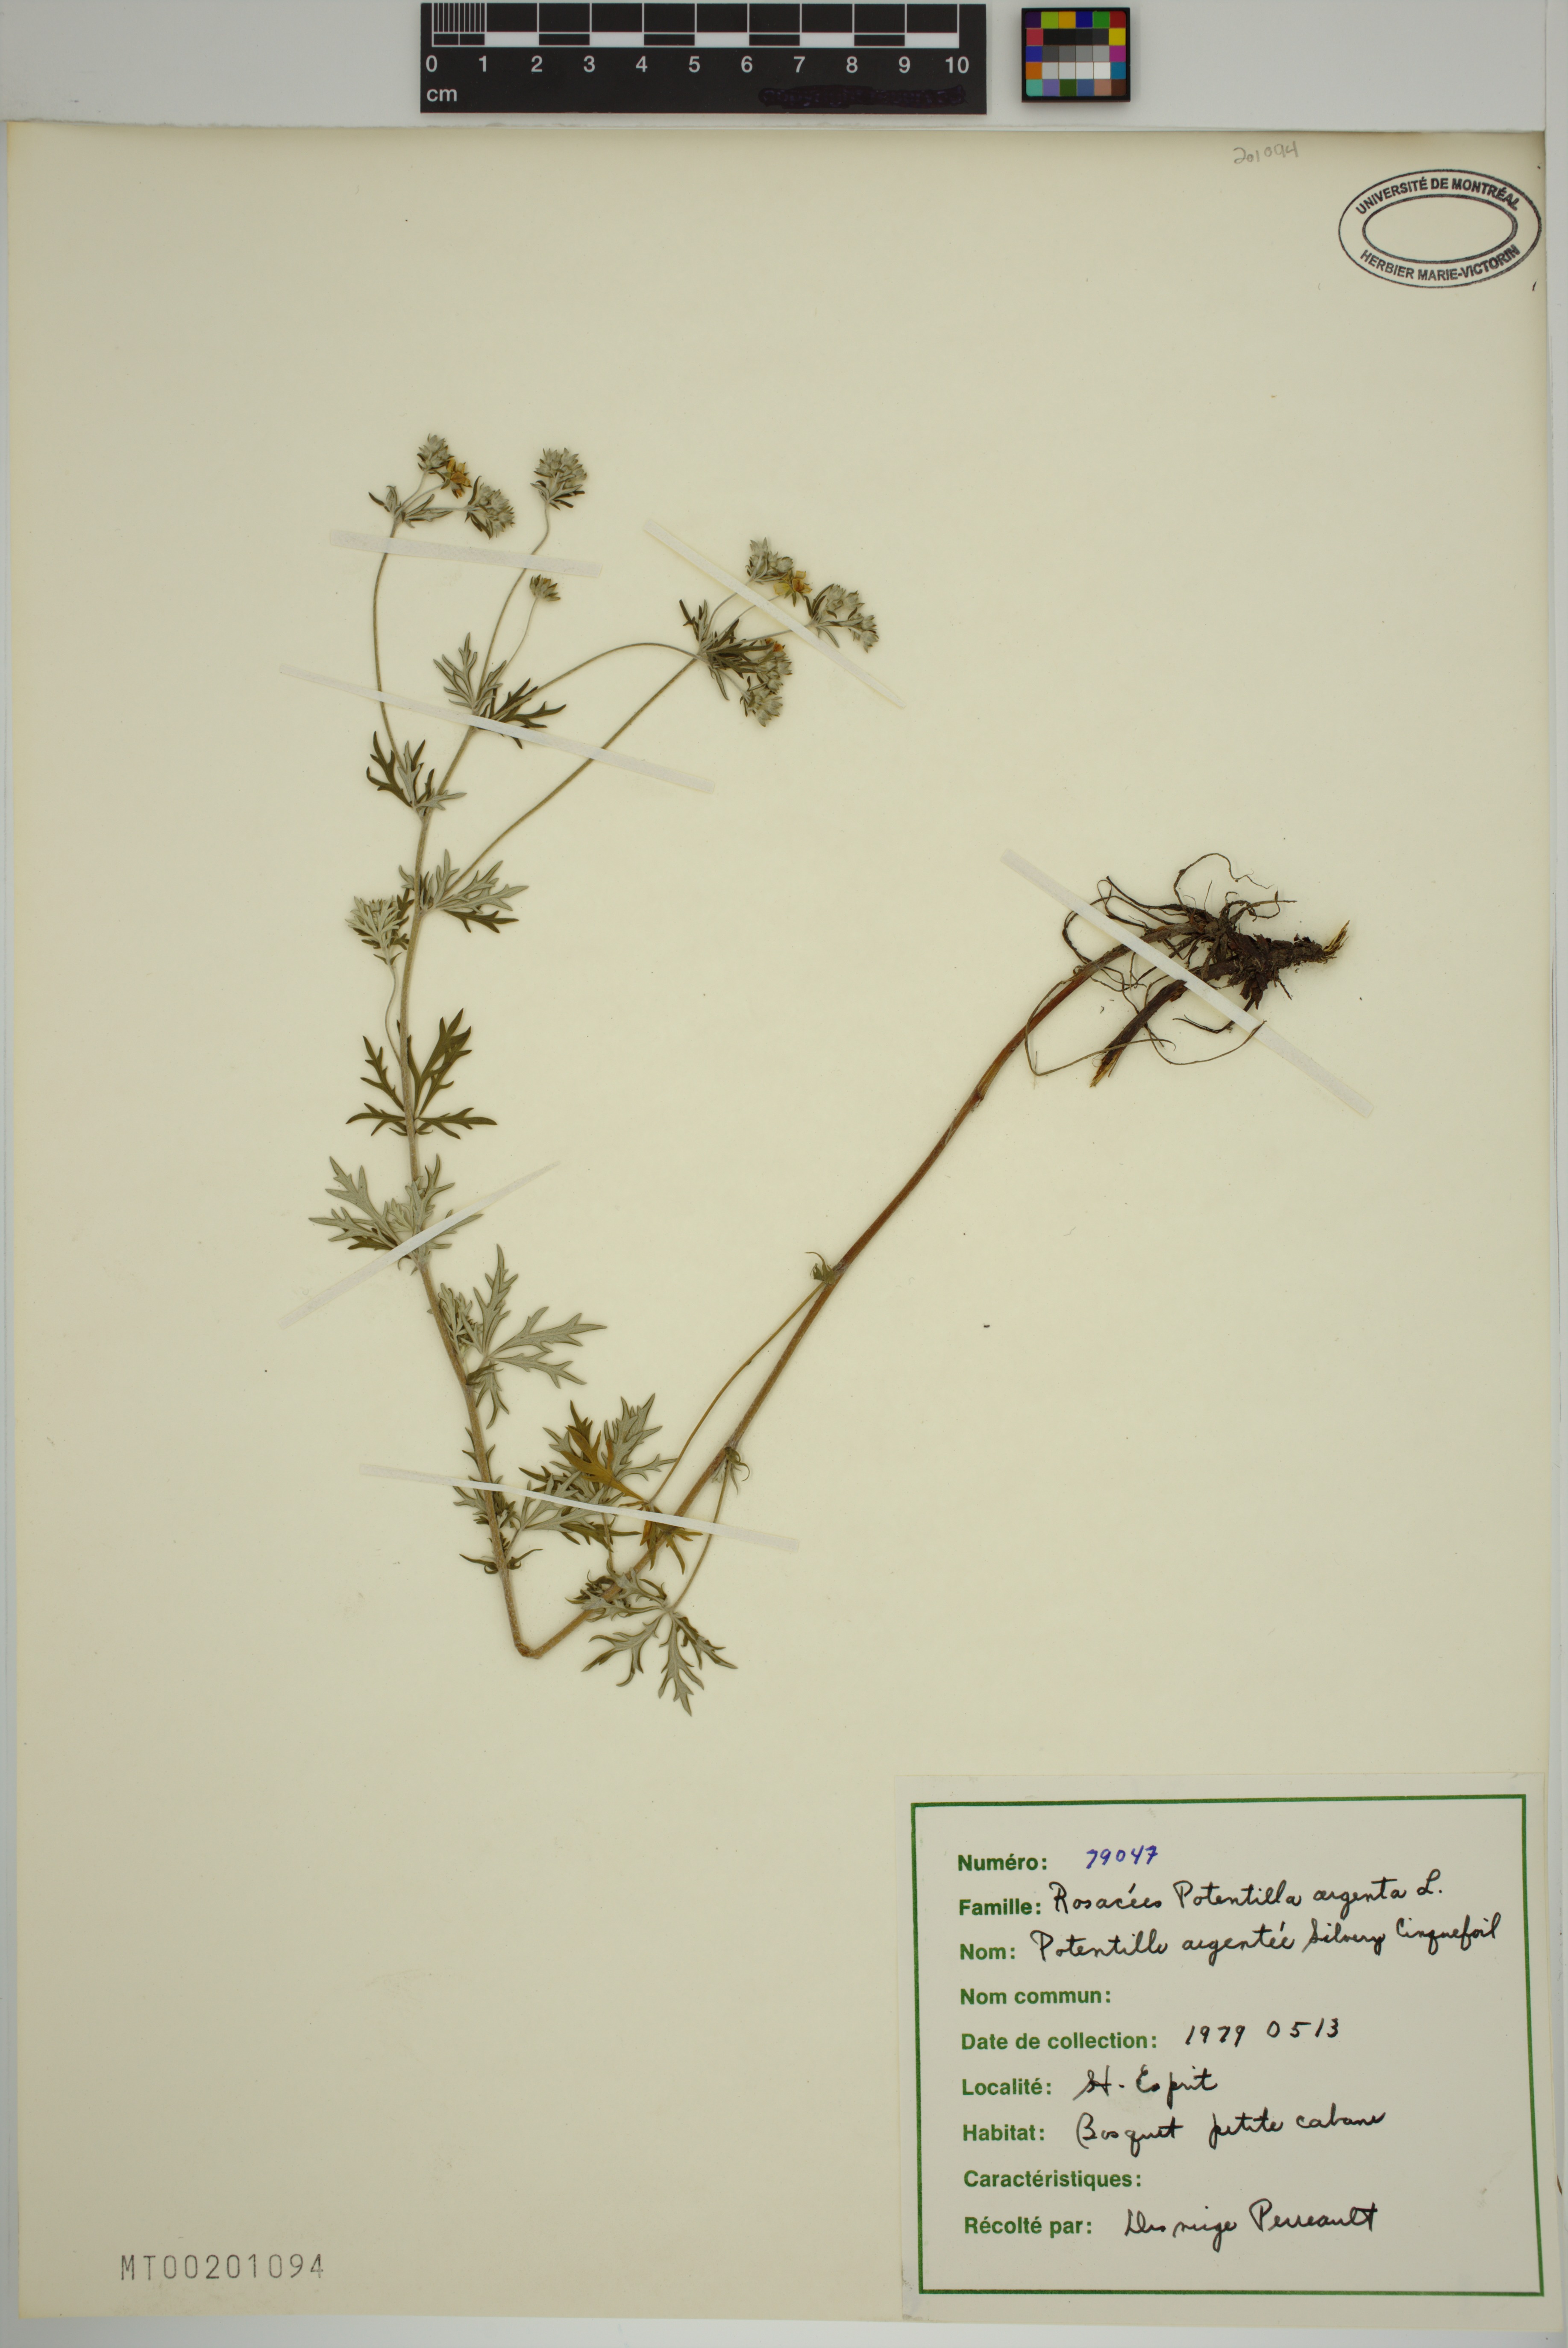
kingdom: Plantae
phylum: Tracheophyta
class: Magnoliopsida
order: Rosales
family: Rosaceae
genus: Potentilla
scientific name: Potentilla argentea
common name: Hoary cinquefoil
